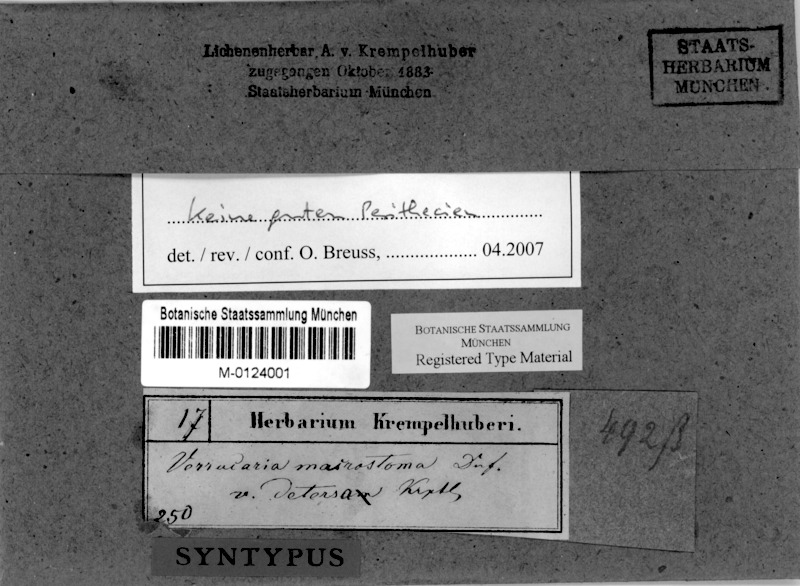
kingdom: Fungi
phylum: Ascomycota
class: Eurotiomycetes
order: Verrucariales
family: Verrucariaceae
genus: Verrucaria
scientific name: Verrucaria macrostoma
